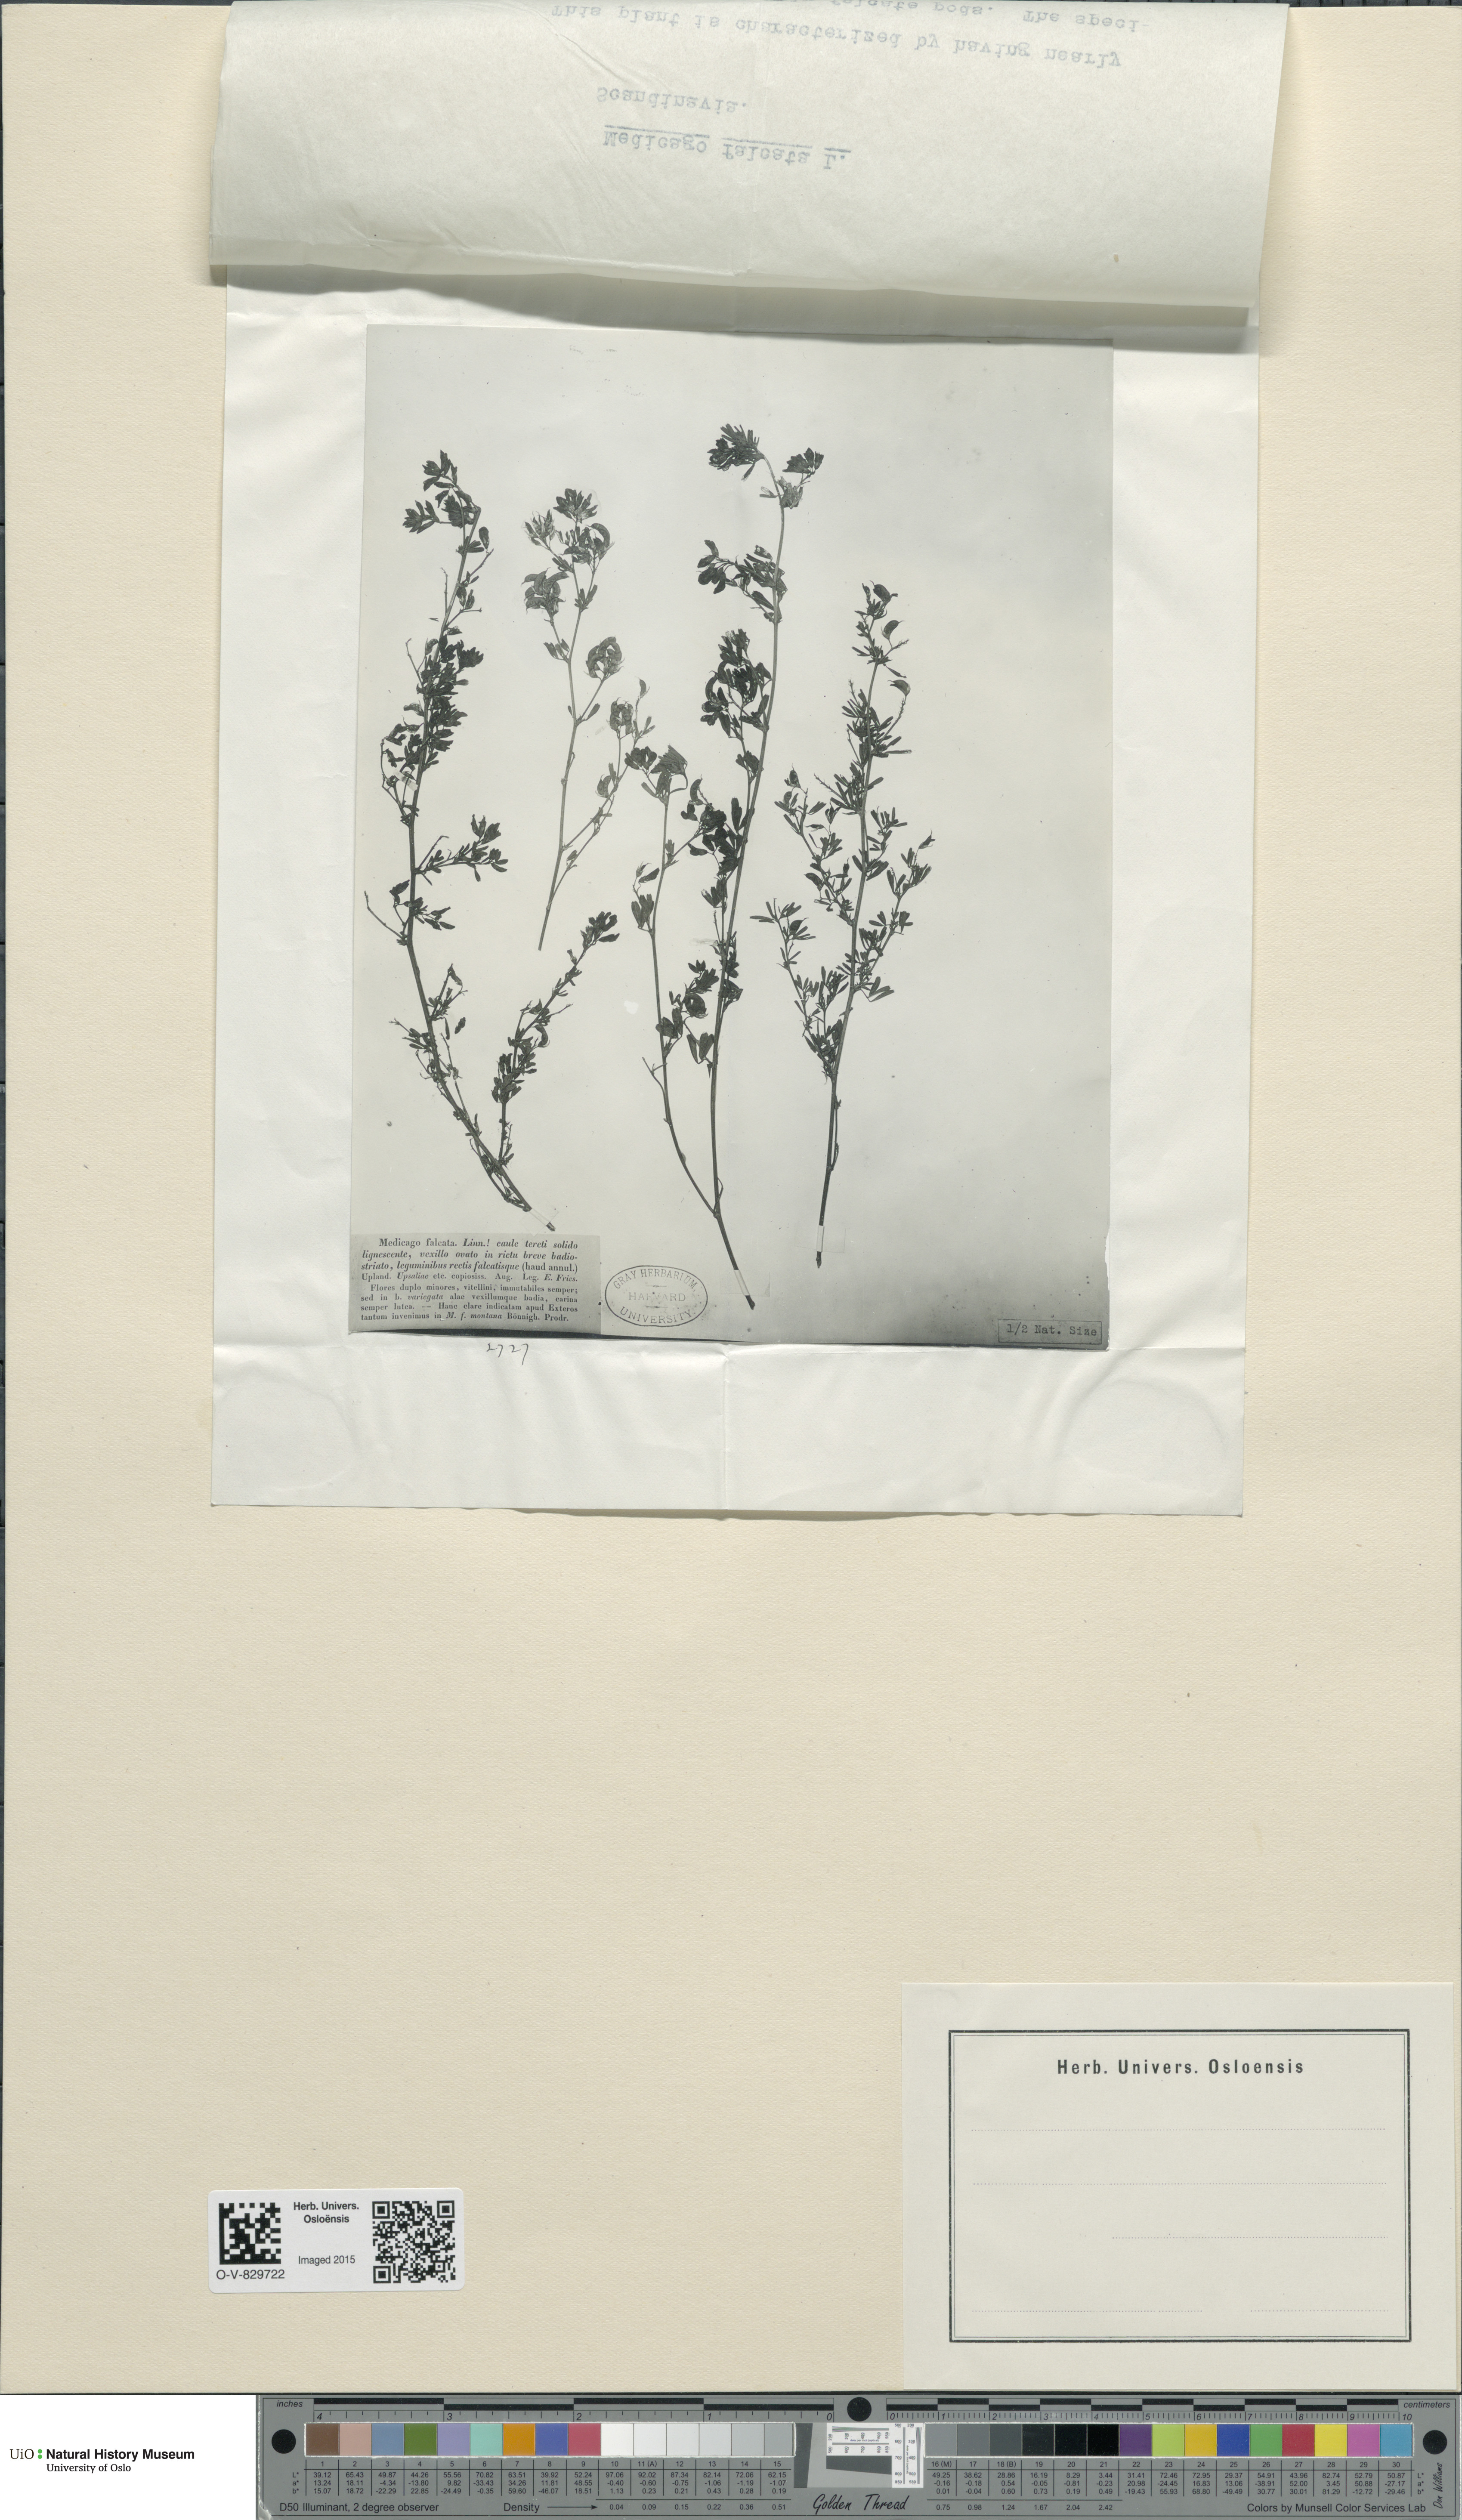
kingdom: Plantae
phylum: Tracheophyta
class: Magnoliopsida
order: Fabales
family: Fabaceae
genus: Medicago
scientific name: Medicago falcata
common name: Sickle medick
